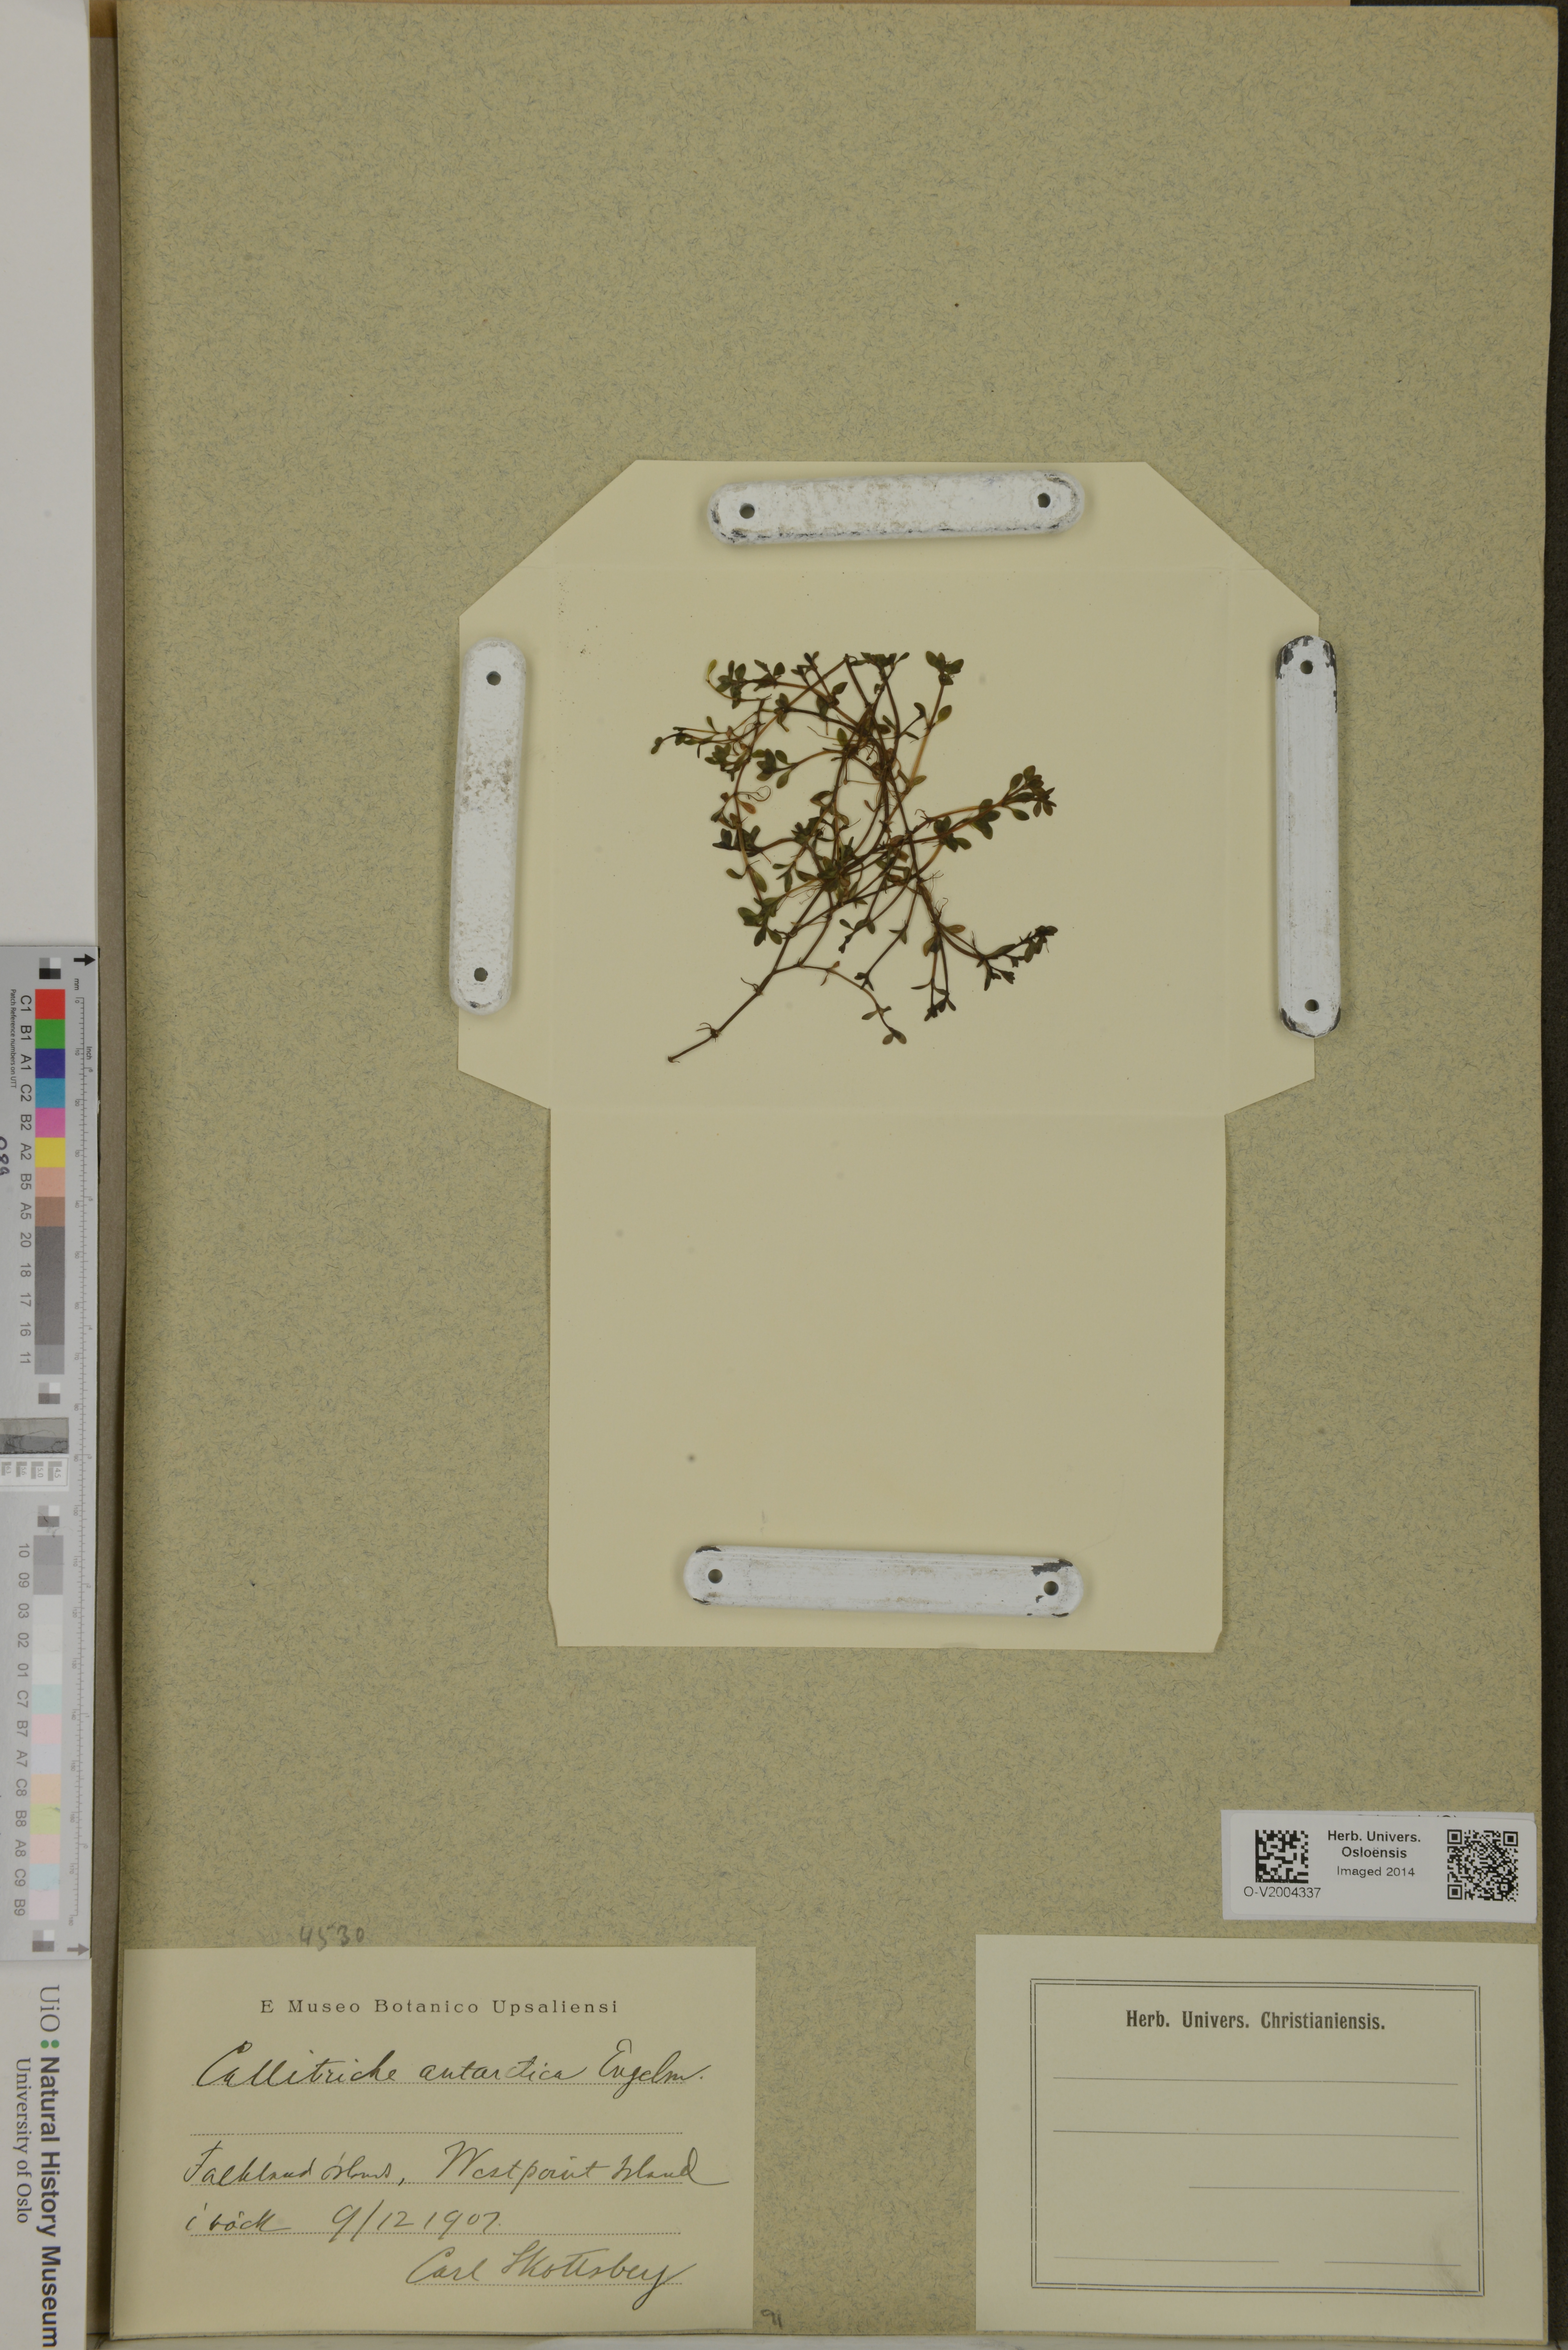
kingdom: Plantae
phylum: Tracheophyta
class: Magnoliopsida
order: Lamiales
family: Plantaginaceae
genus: Callitriche
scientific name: Callitriche antarctica
